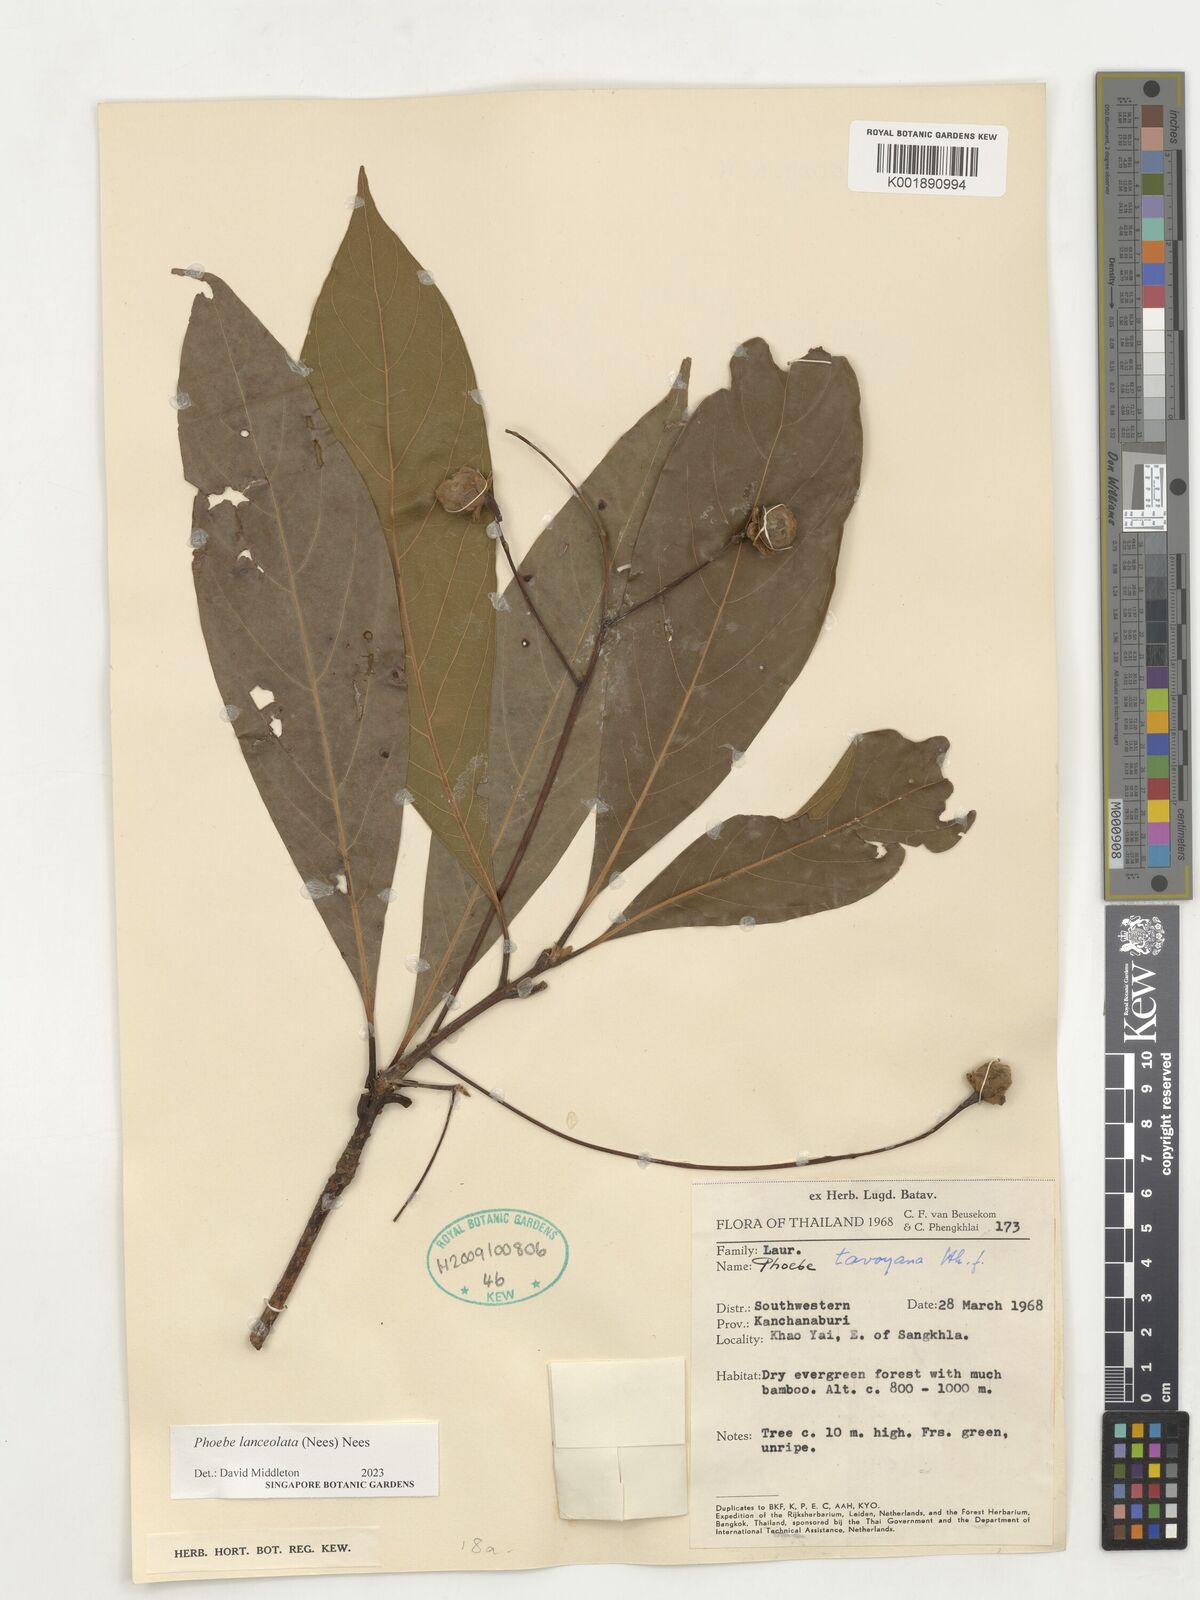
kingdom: Plantae
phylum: Tracheophyta
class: Magnoliopsida
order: Laurales
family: Lauraceae
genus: Phoebe
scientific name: Phoebe lanceolata
